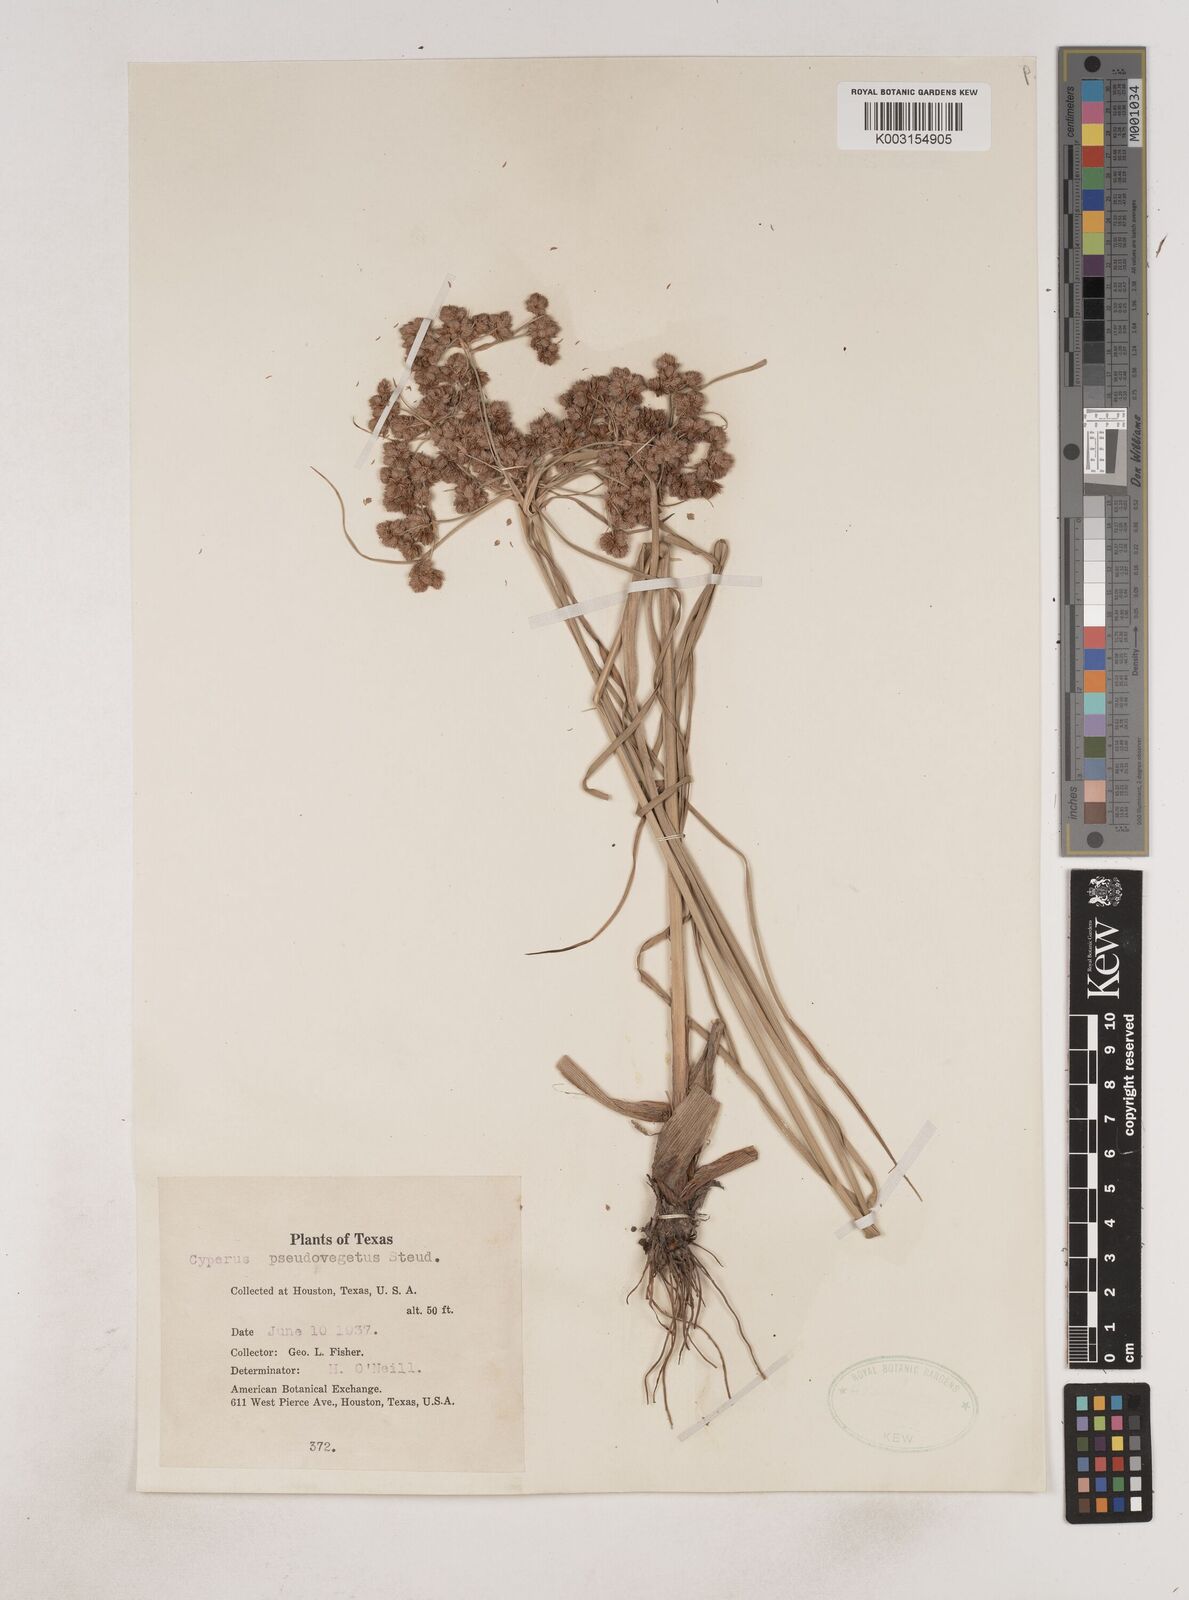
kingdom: Plantae
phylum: Tracheophyta
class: Liliopsida
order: Poales
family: Cyperaceae
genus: Cyperus
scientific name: Cyperus pseudovegetus
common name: Marsh flat sedge
